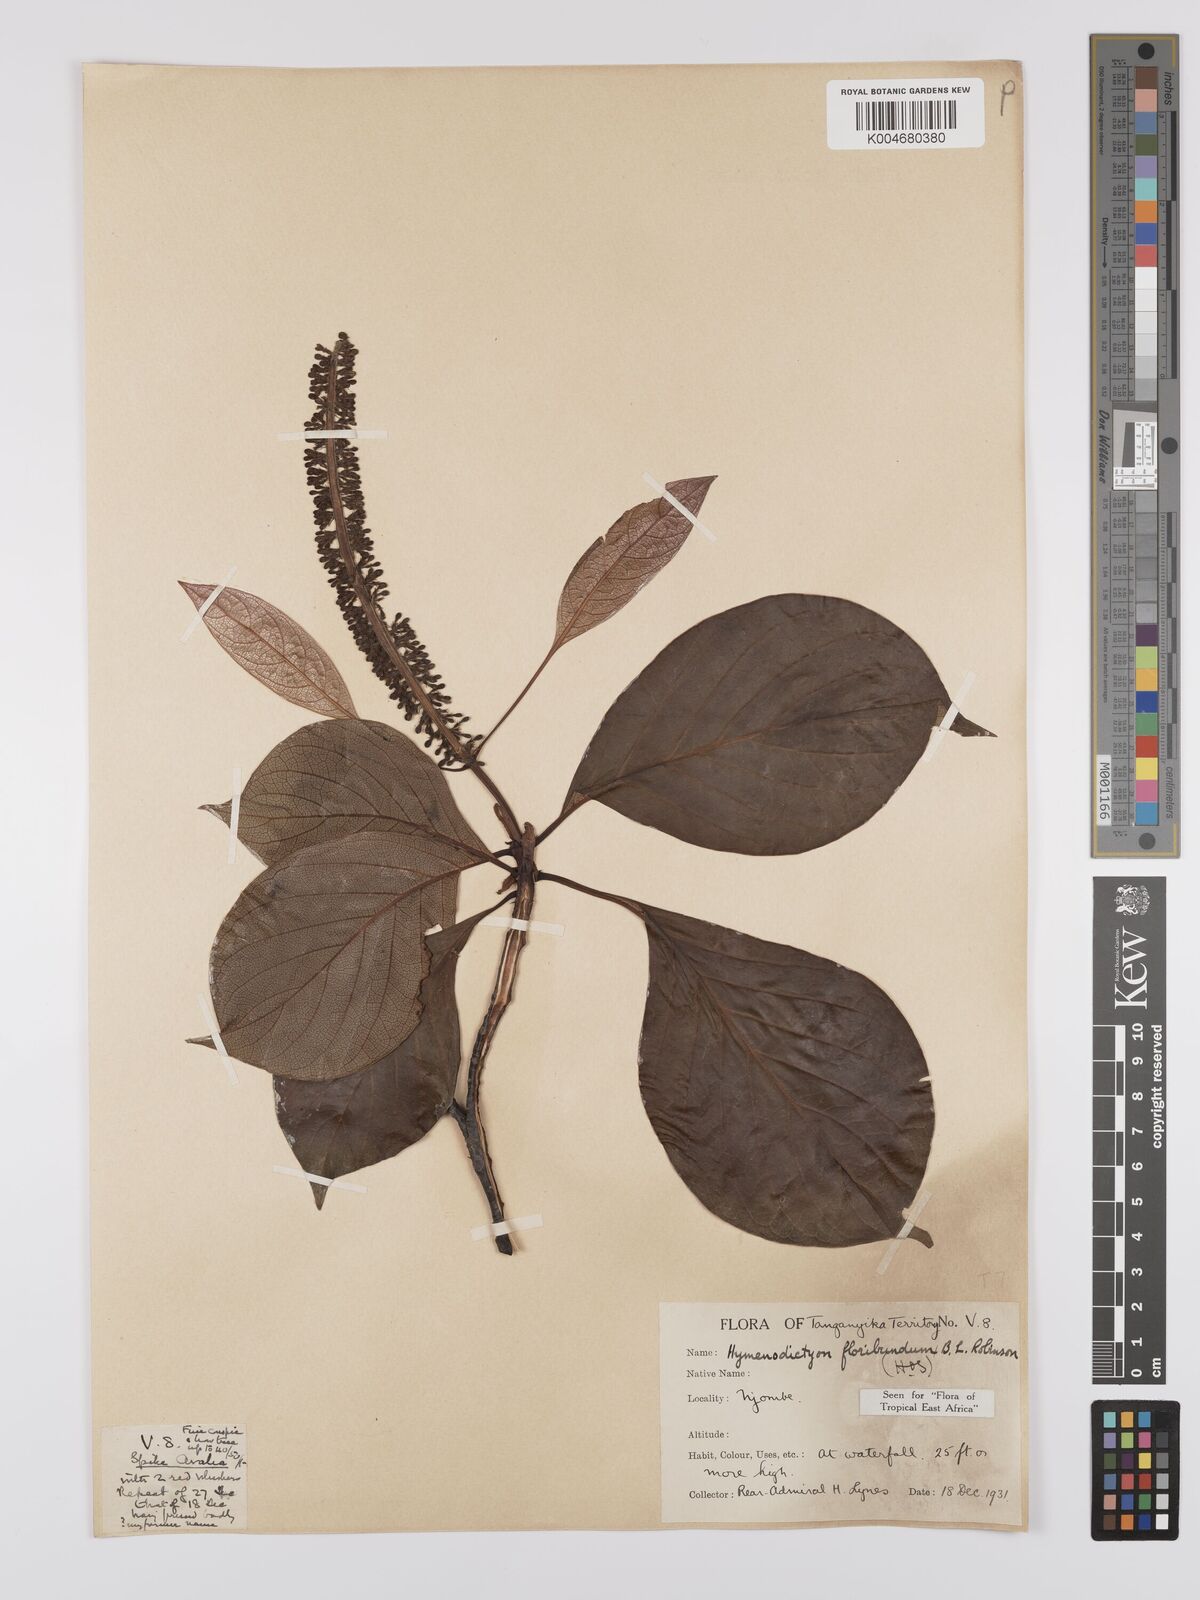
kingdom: Plantae
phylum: Tracheophyta
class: Magnoliopsida
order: Gentianales
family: Rubiaceae
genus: Hymenodictyon
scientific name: Hymenodictyon floribundum
